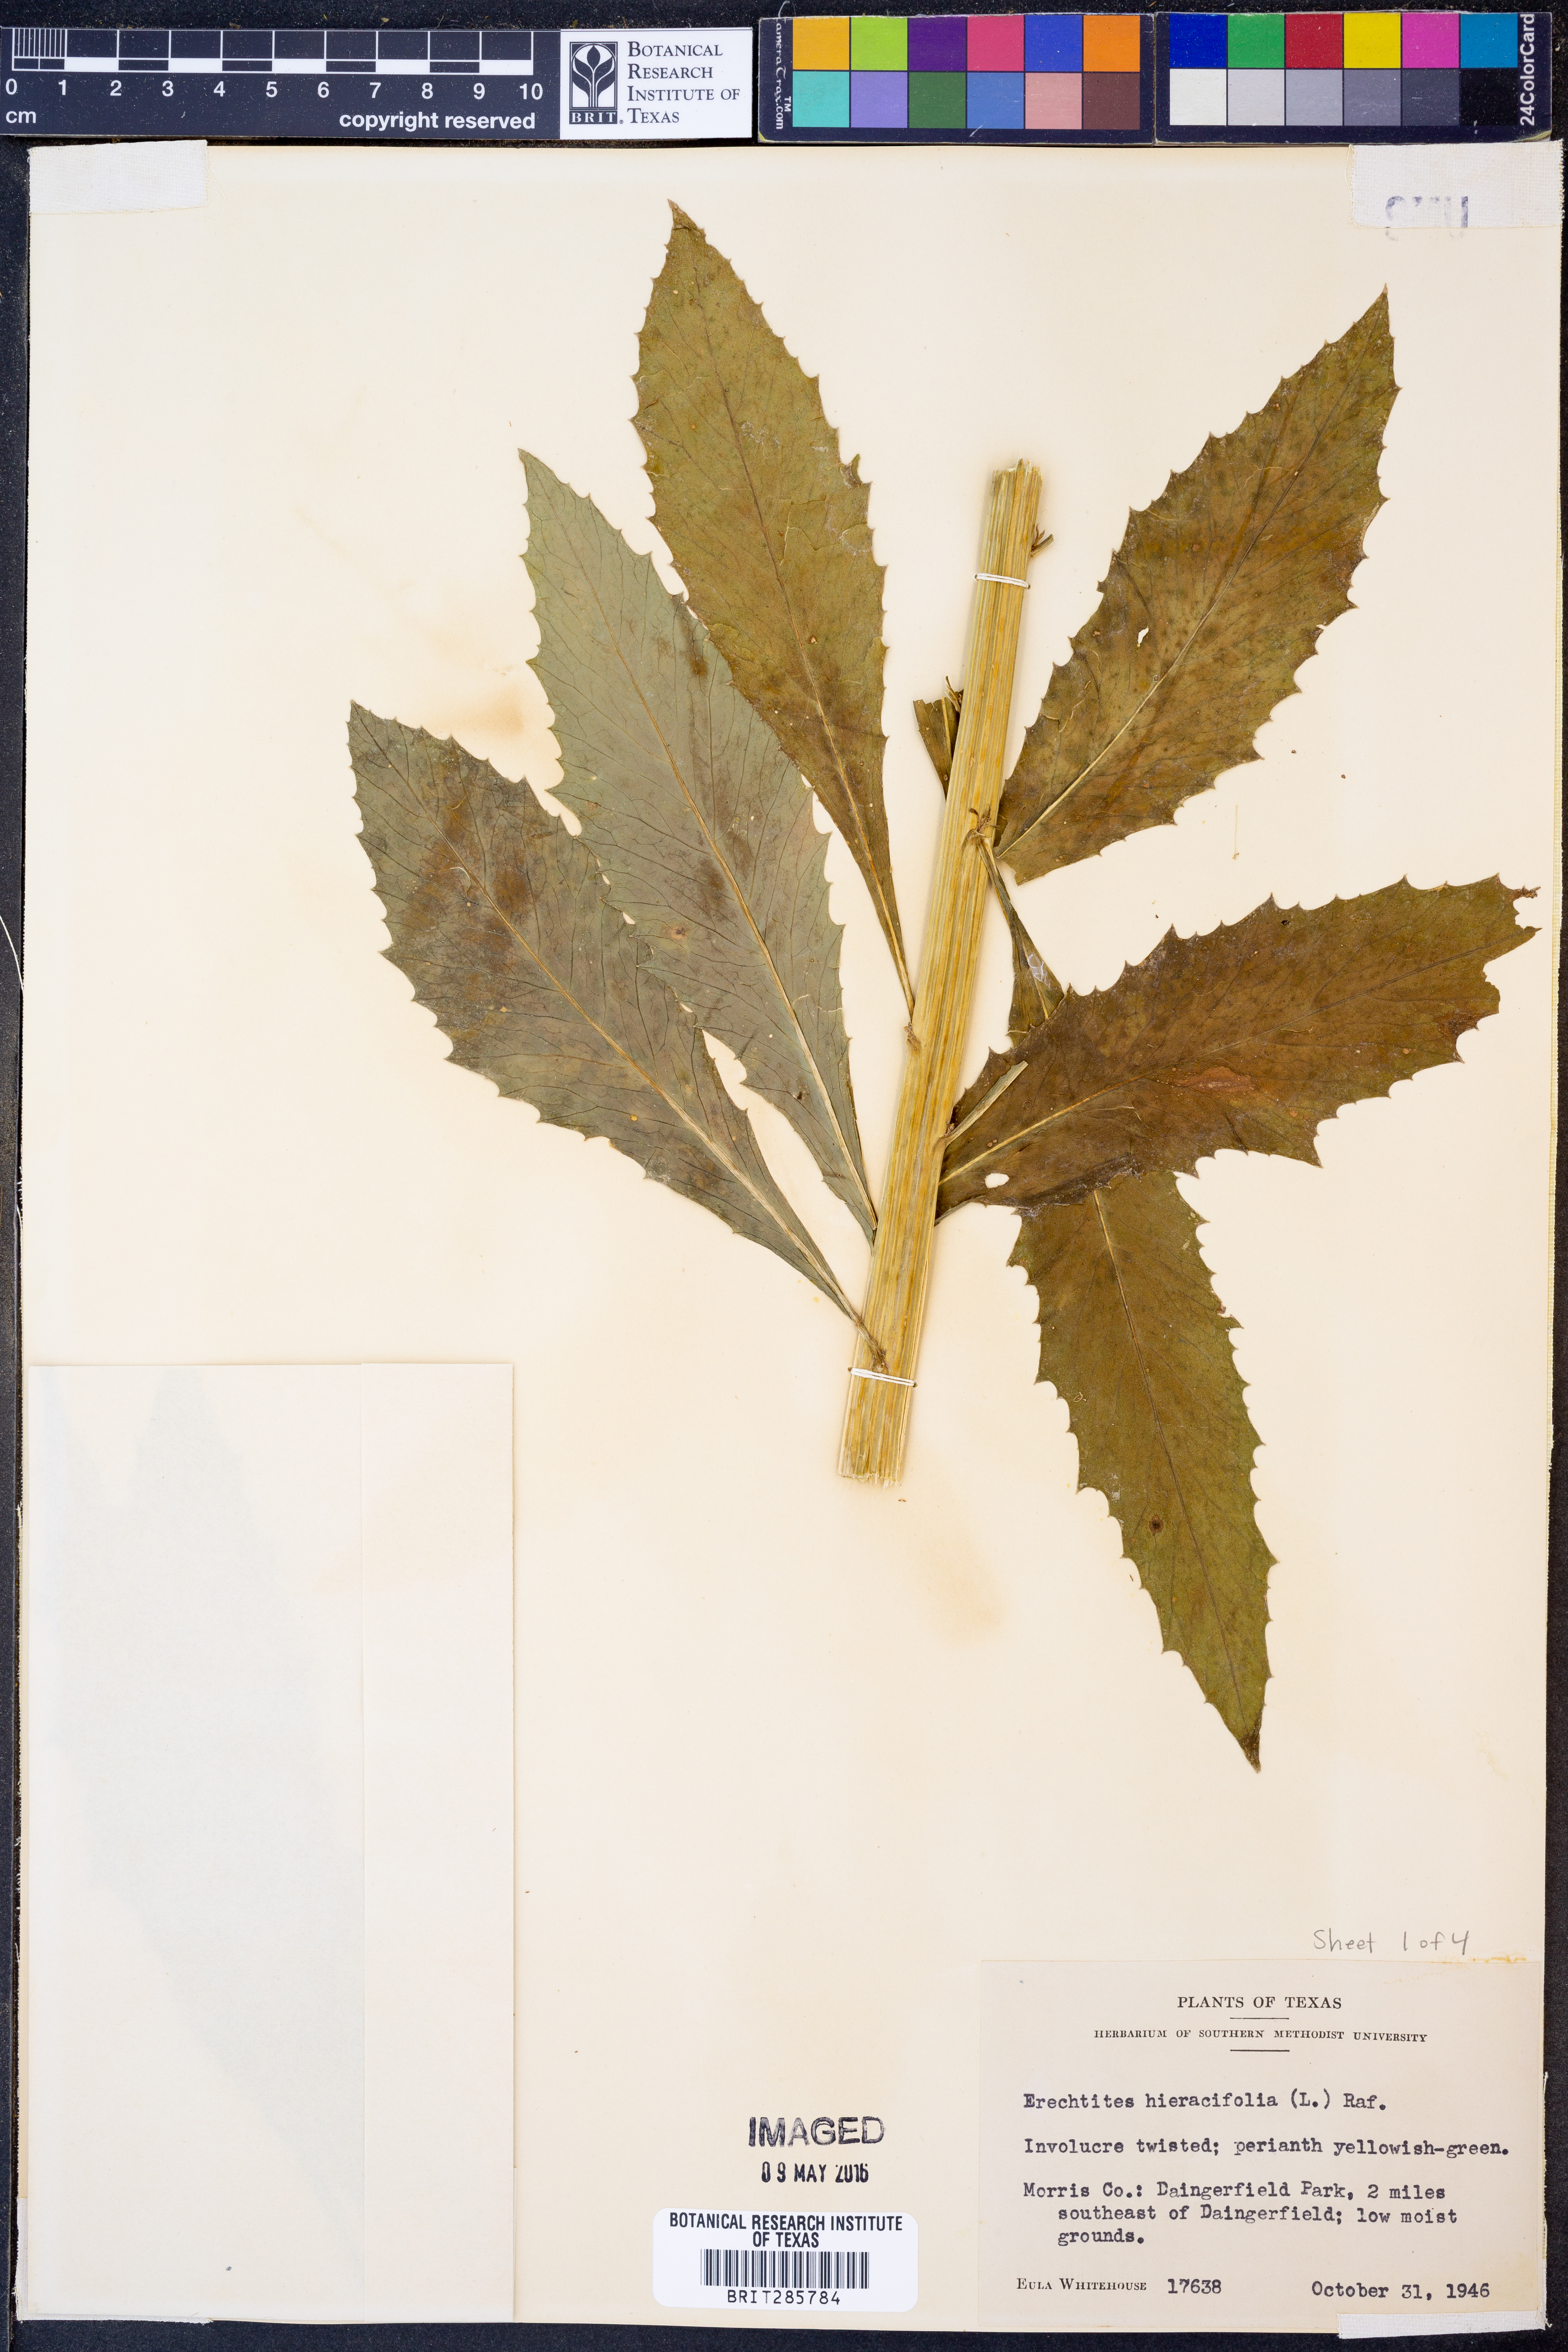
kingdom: Plantae
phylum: Tracheophyta
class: Magnoliopsida
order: Asterales
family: Asteraceae
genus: Erechtites
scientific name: Erechtites hieraciifolius
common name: American burnweed
